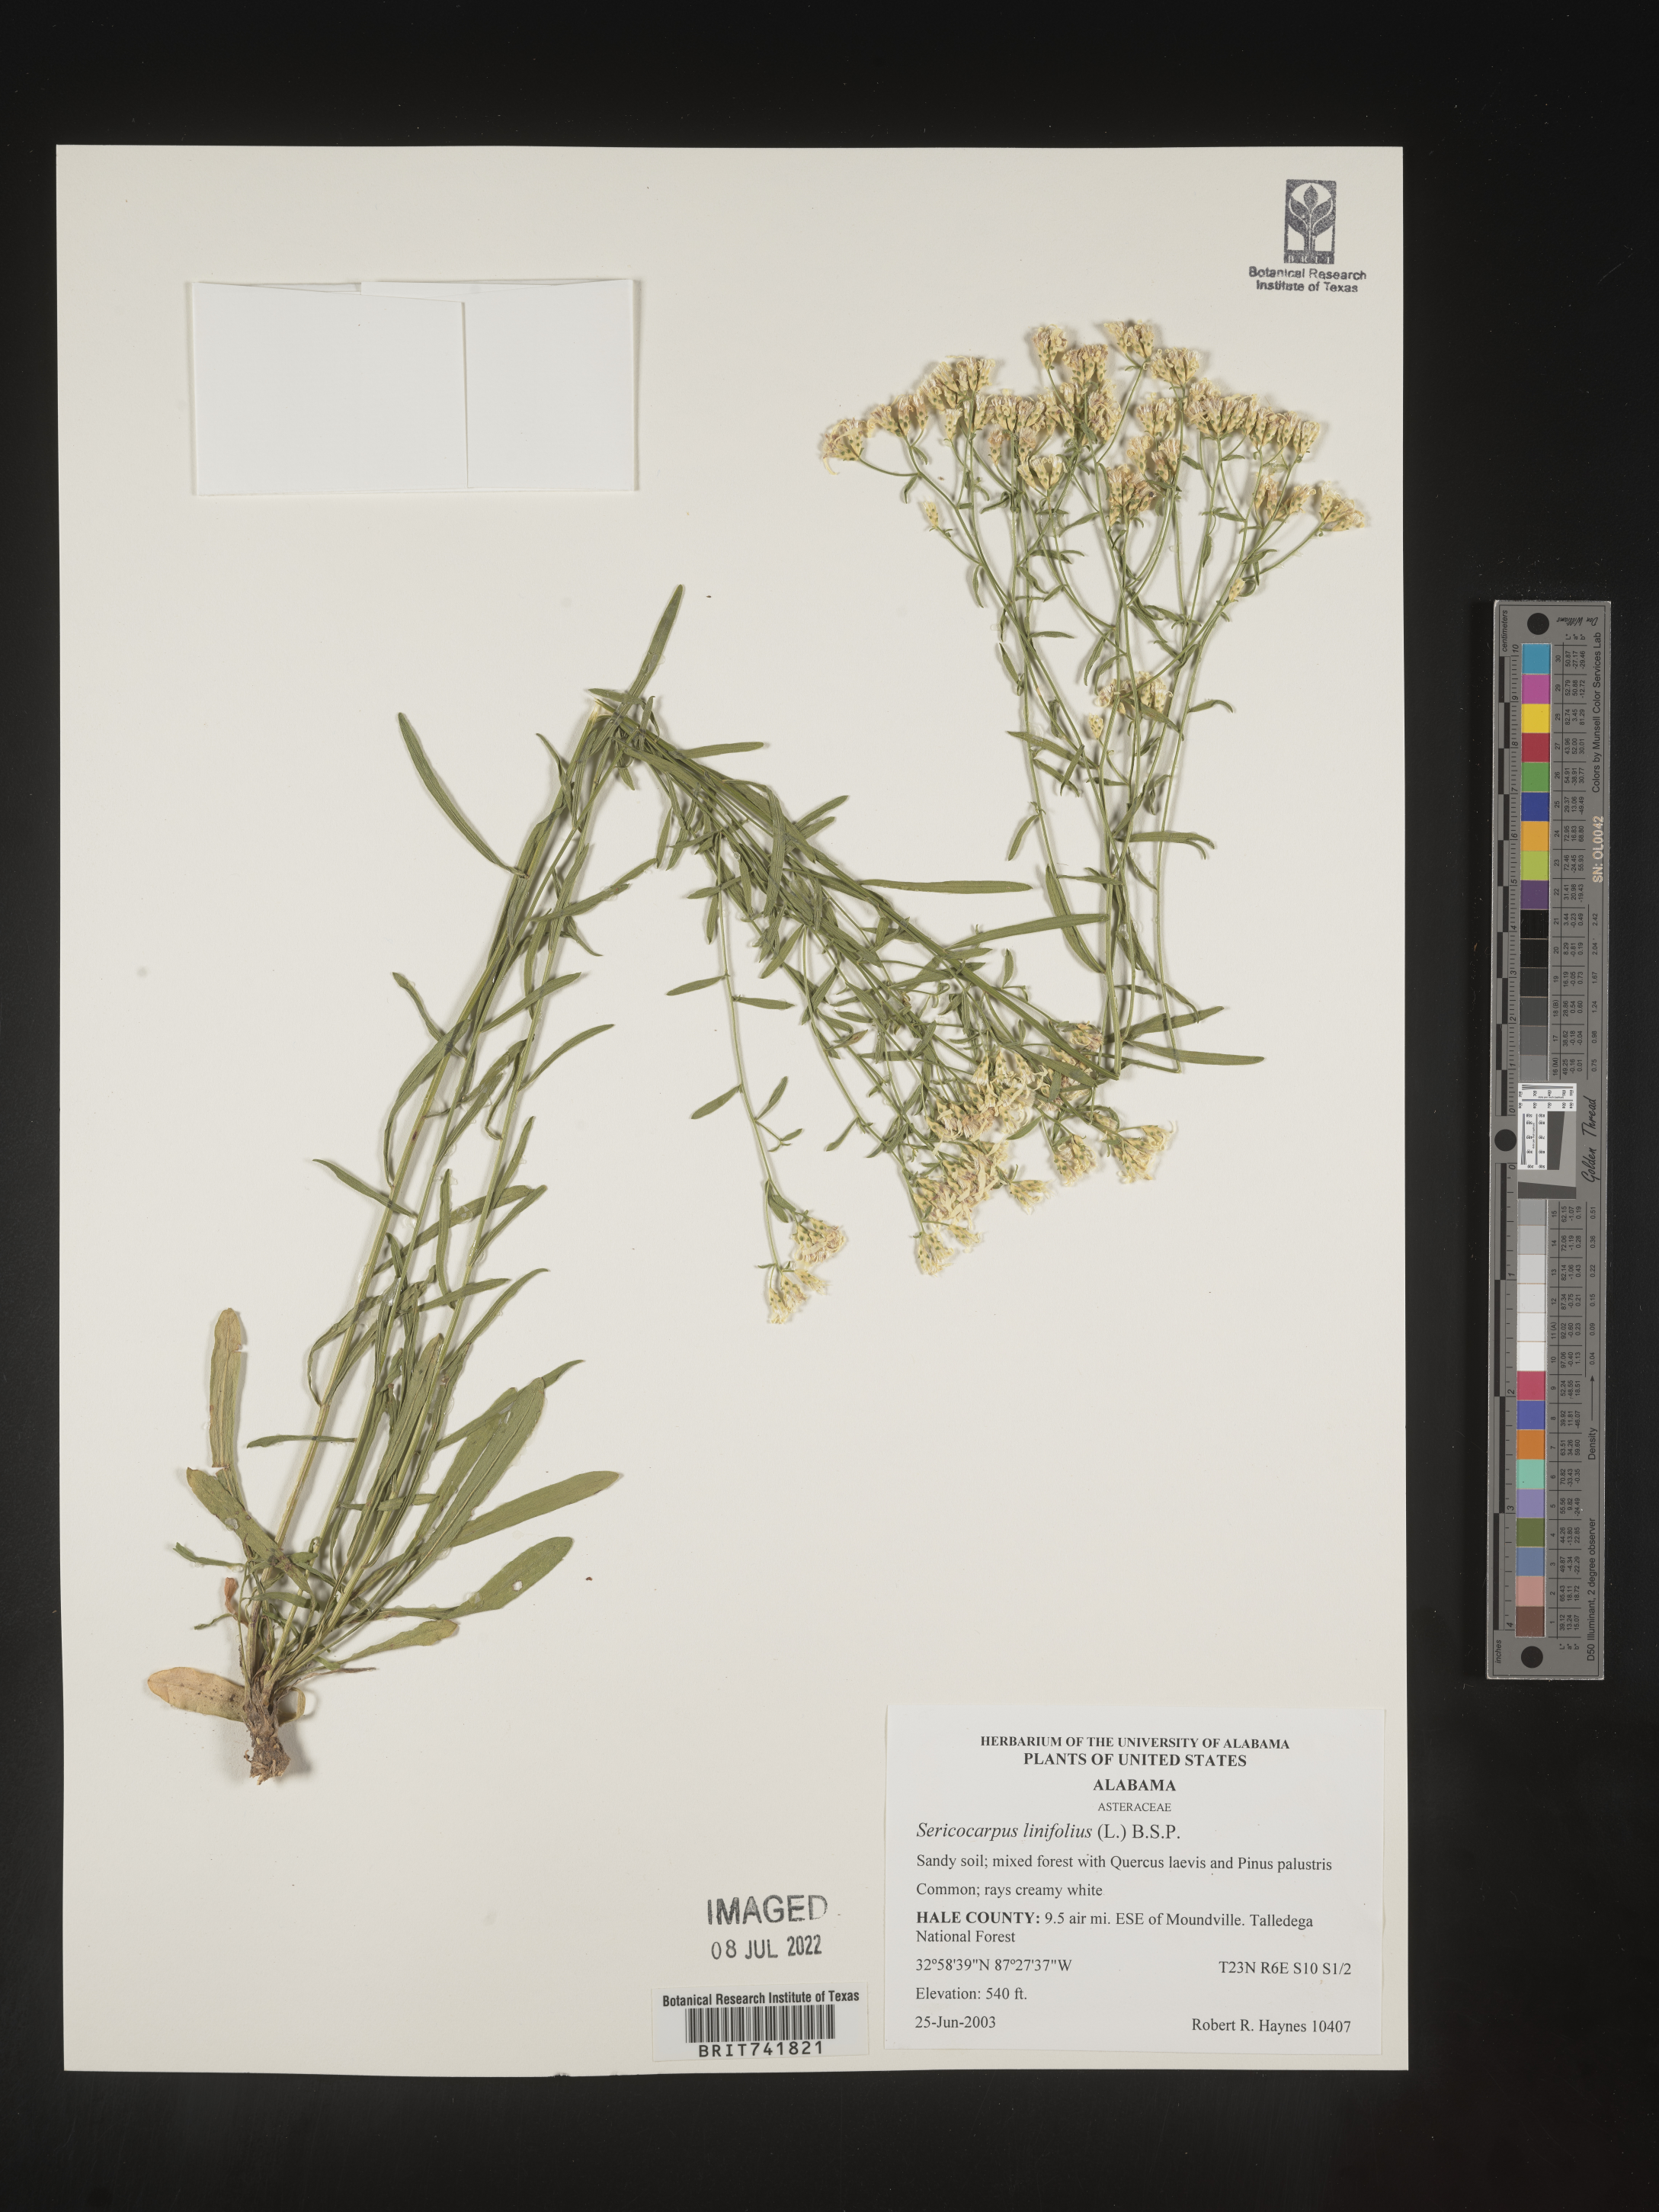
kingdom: Plantae
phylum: Tracheophyta
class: Magnoliopsida
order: Asterales
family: Asteraceae
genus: Sericocarpus
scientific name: Sericocarpus linifolius
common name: Narrow-leaf aster
